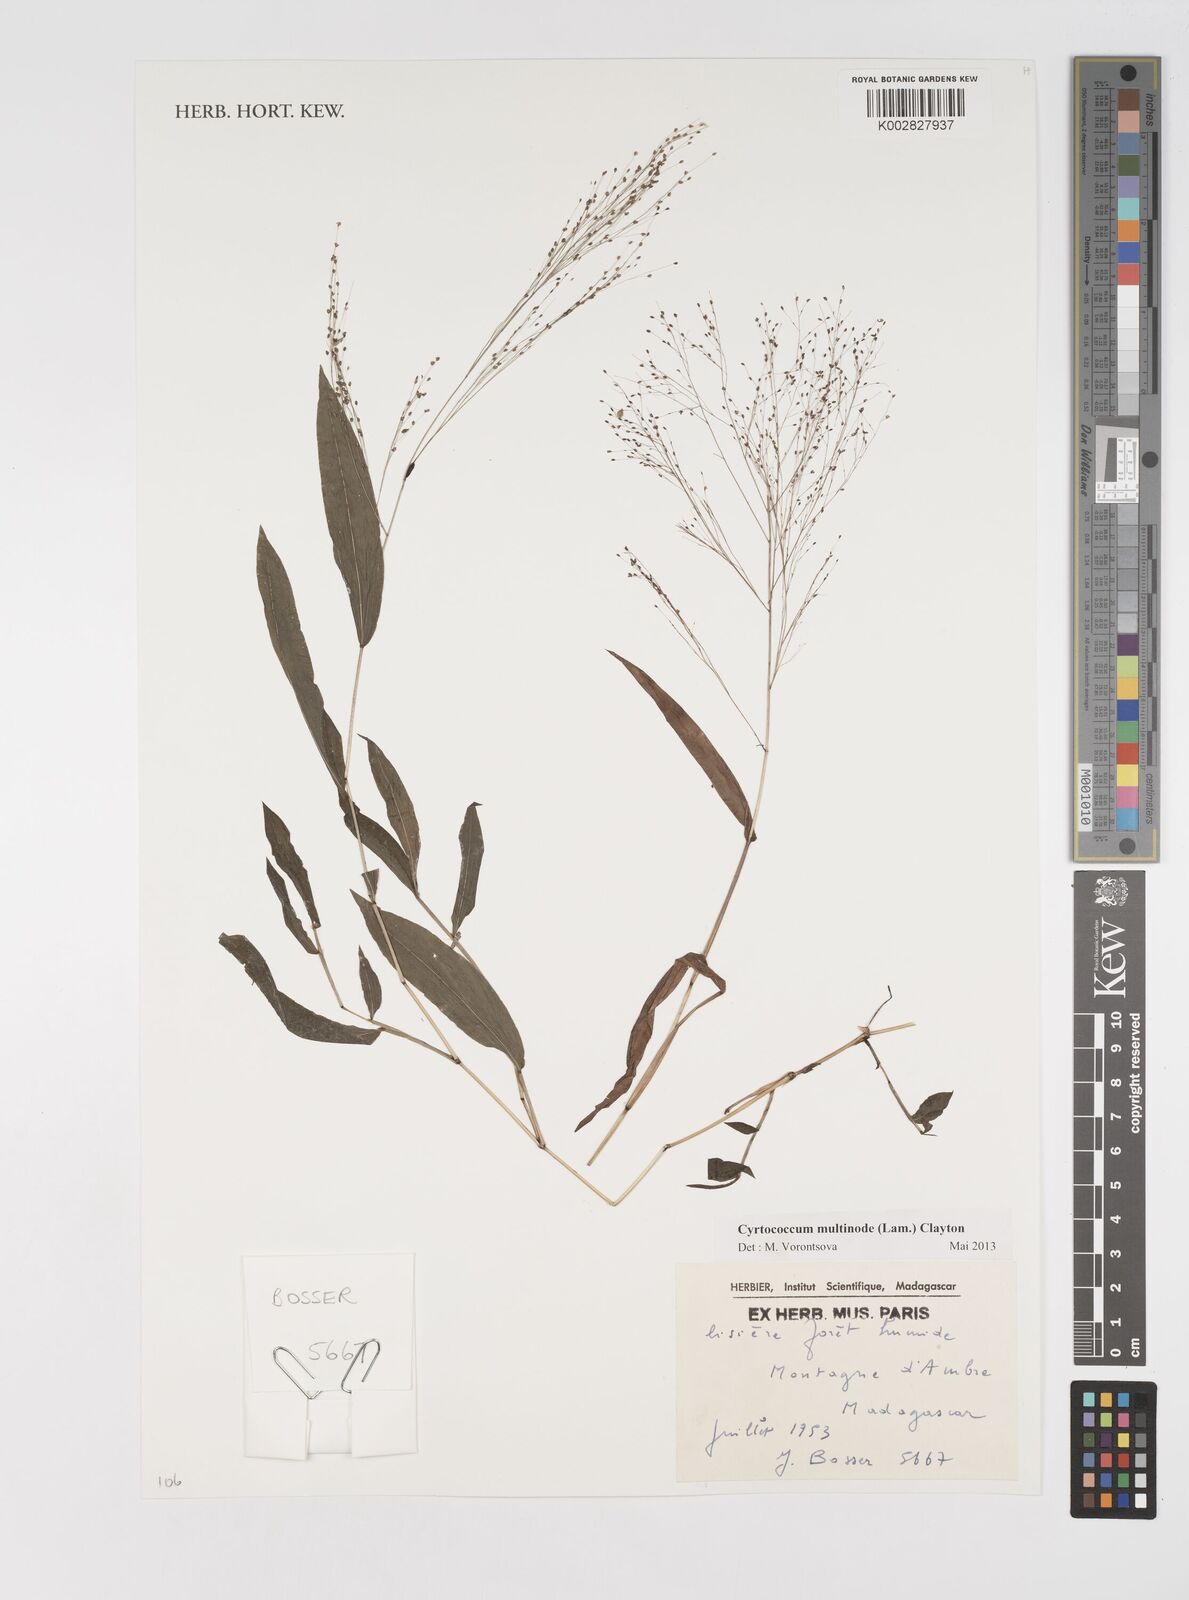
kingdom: Plantae
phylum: Tracheophyta
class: Liliopsida
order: Poales
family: Poaceae
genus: Cyrtococcum
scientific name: Cyrtococcum multinode
